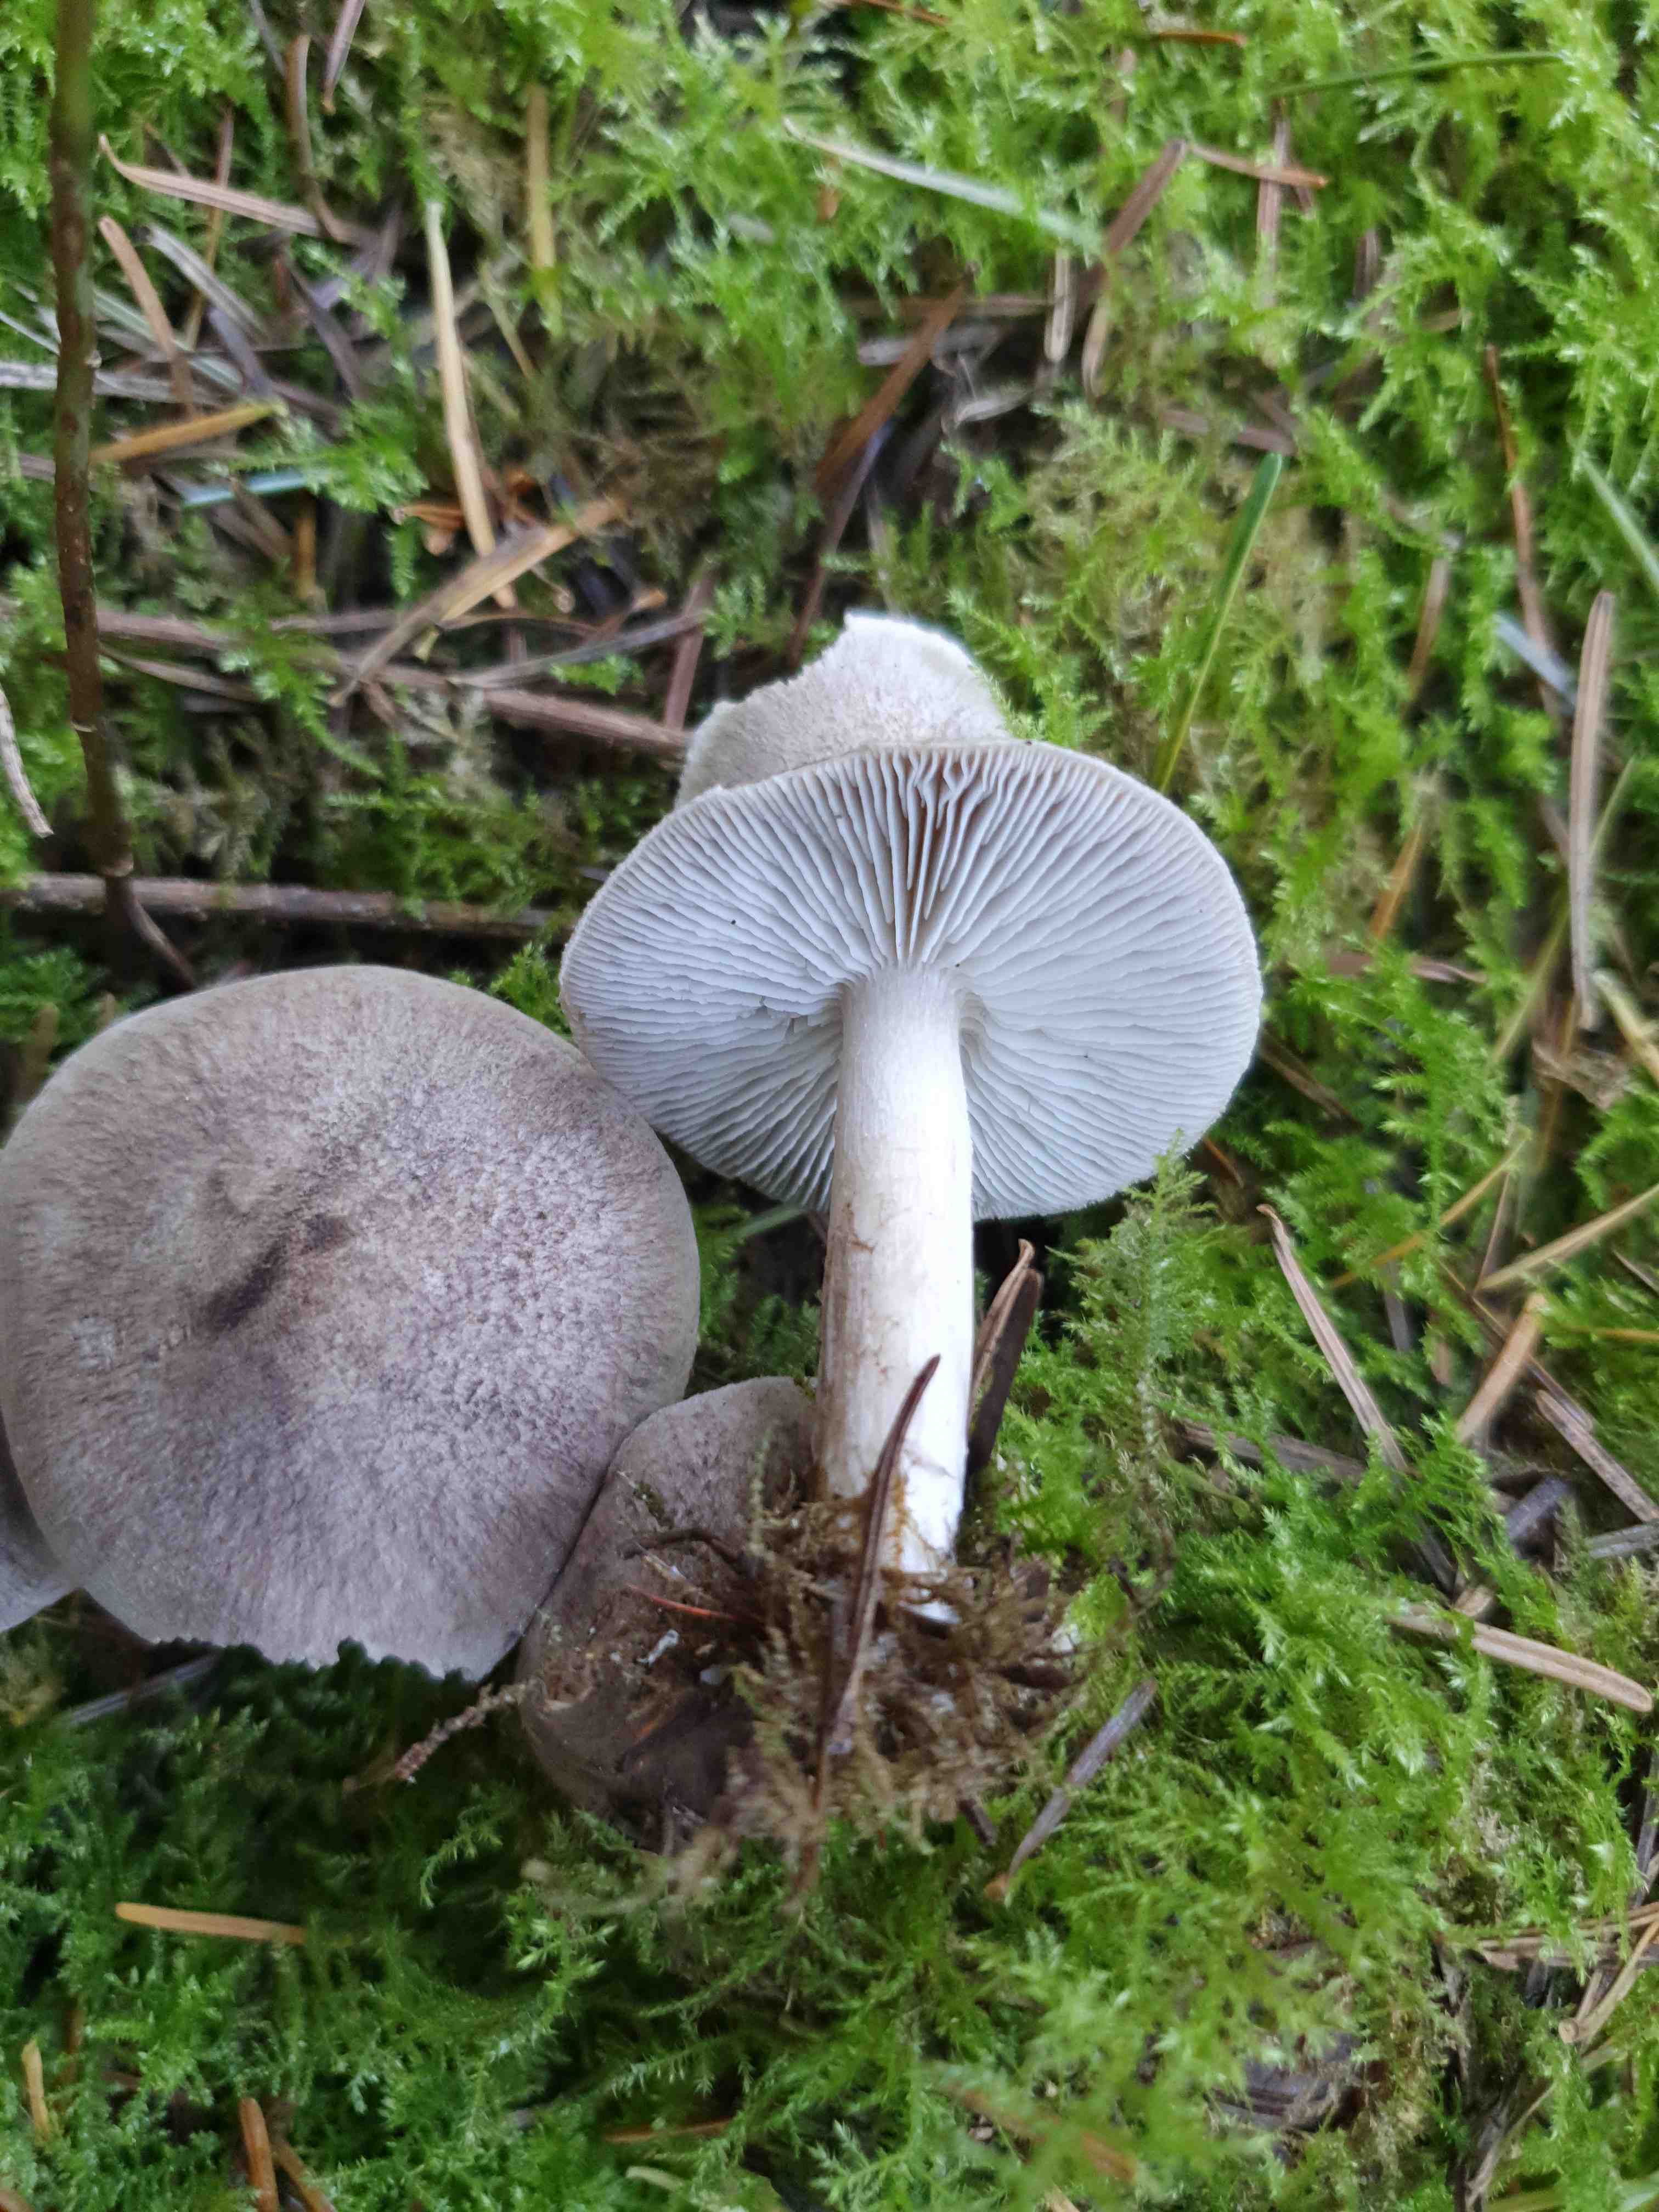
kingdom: Fungi
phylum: Basidiomycota
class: Agaricomycetes
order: Agaricales
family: Tricholomataceae
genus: Tricholoma
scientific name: Tricholoma terreum
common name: jordfarvet ridderhat
